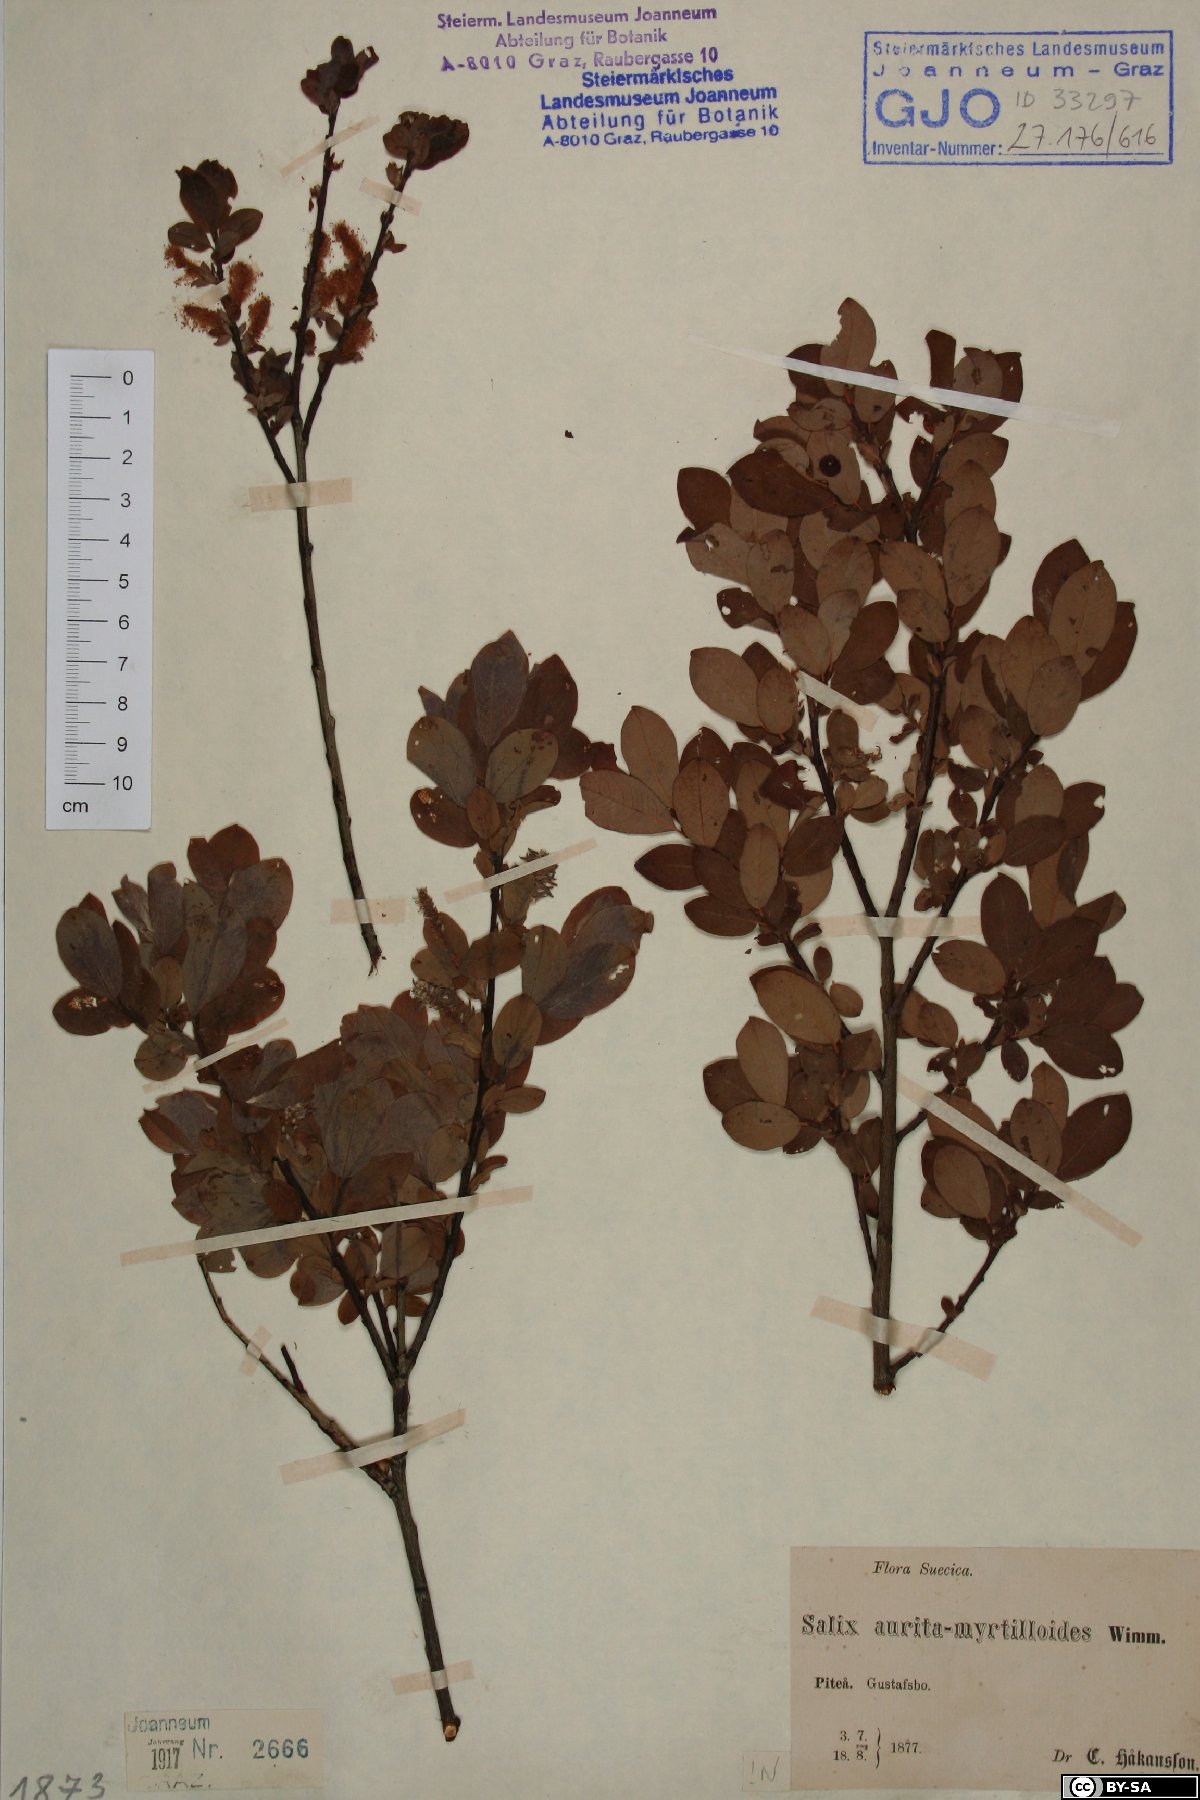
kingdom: Plantae
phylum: Tracheophyta
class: Magnoliopsida
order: Malpighiales
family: Salicaceae
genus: Salix
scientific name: Salix aurita
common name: Eared willow
